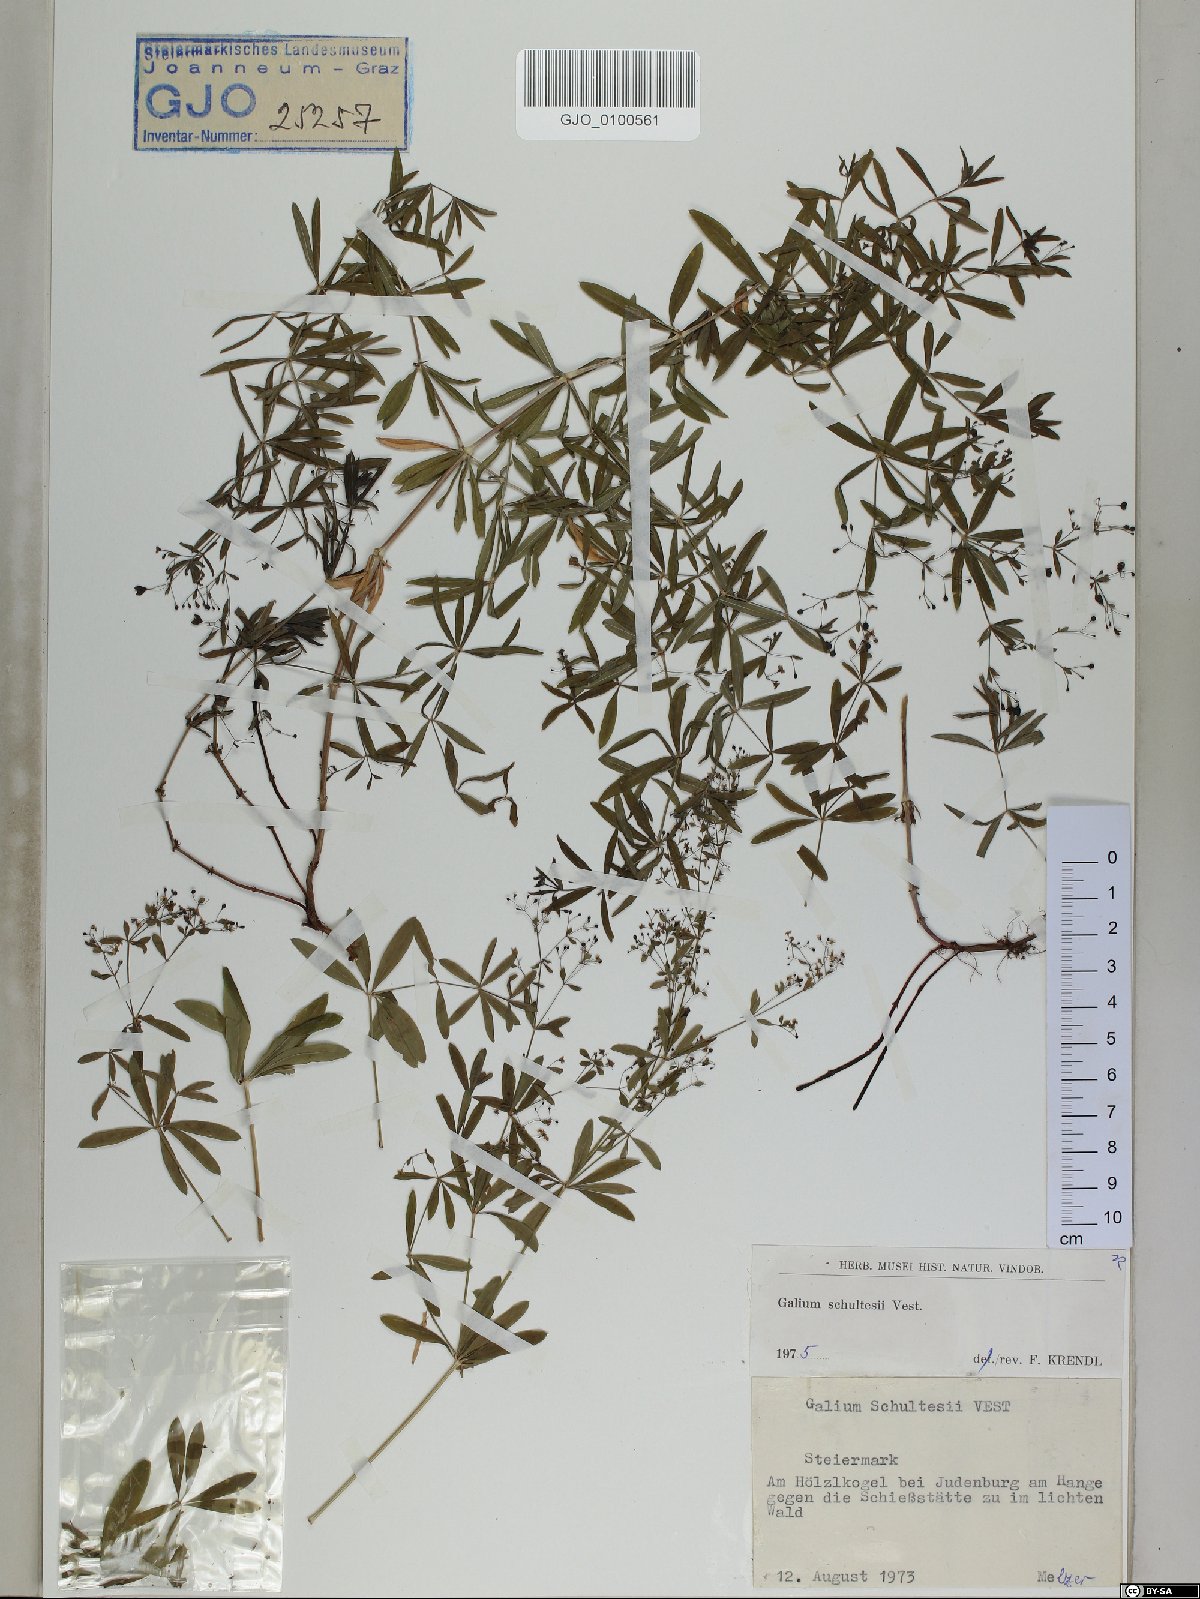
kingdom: Plantae
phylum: Tracheophyta
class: Magnoliopsida
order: Gentianales
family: Rubiaceae
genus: Galium
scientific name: Galium intermedium
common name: Bedstraw
